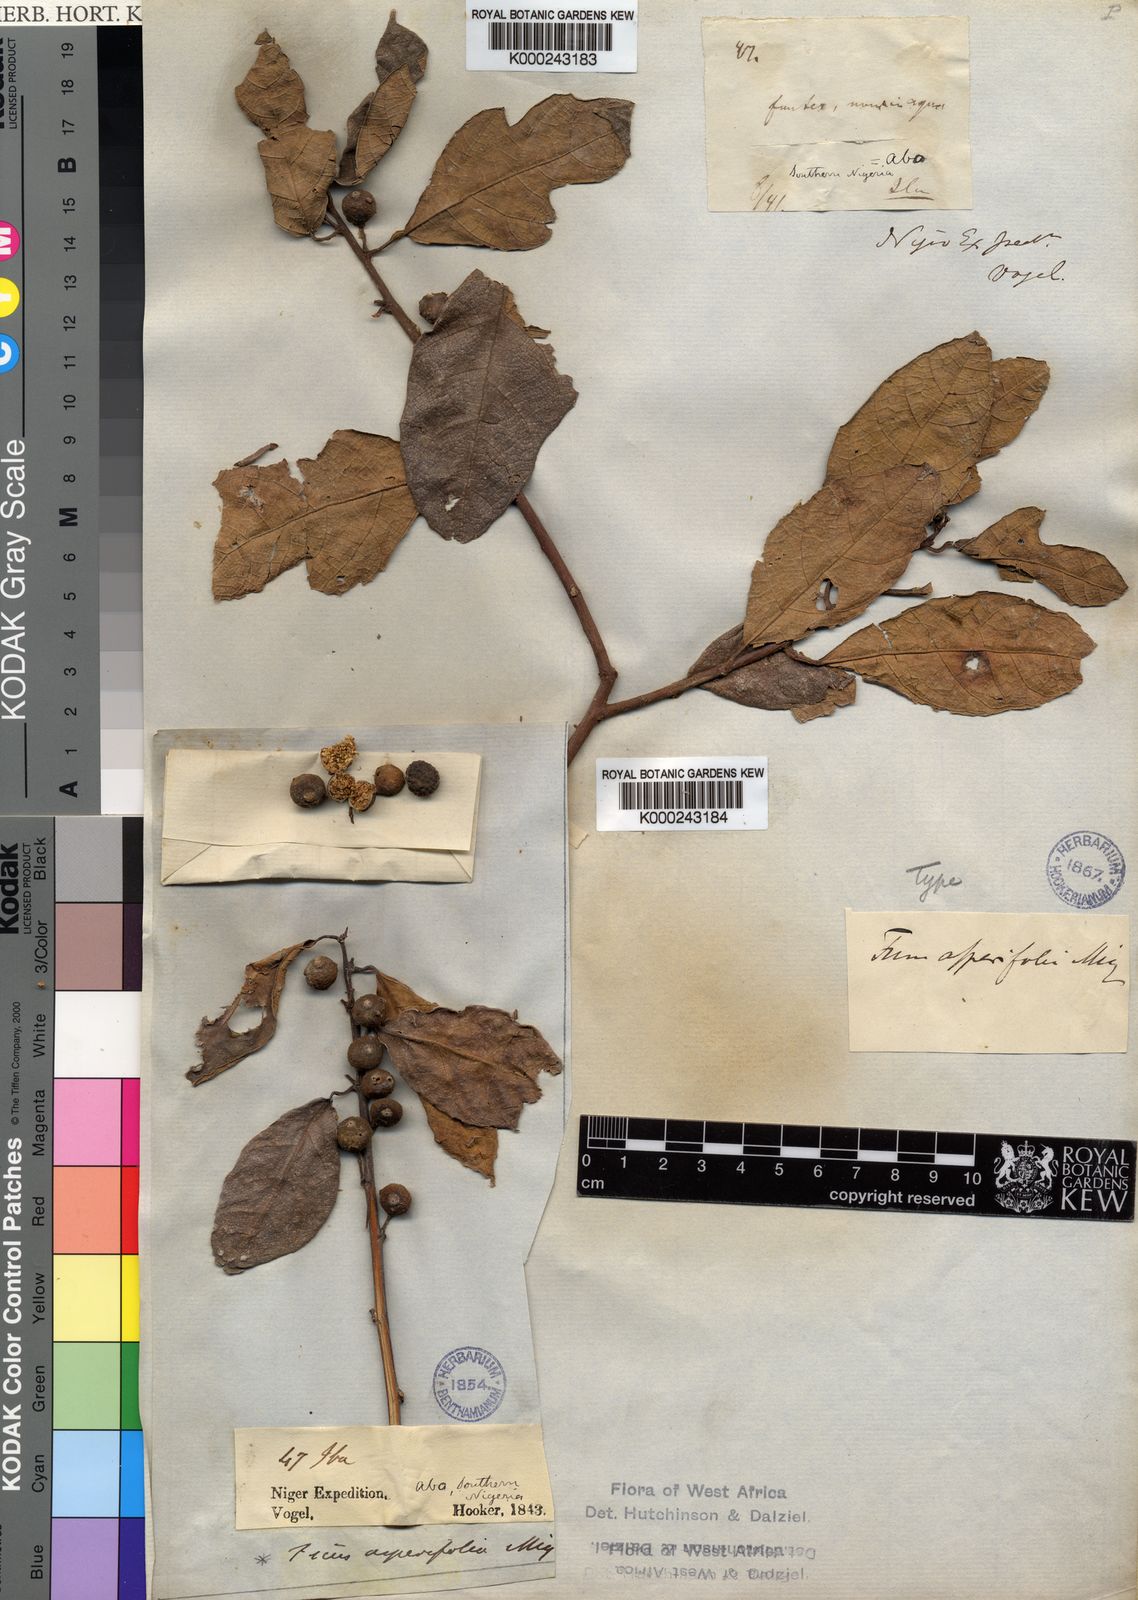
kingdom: Plantae
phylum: Tracheophyta
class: Magnoliopsida
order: Rosales
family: Moraceae
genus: Ficus
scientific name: Ficus asperifolia
